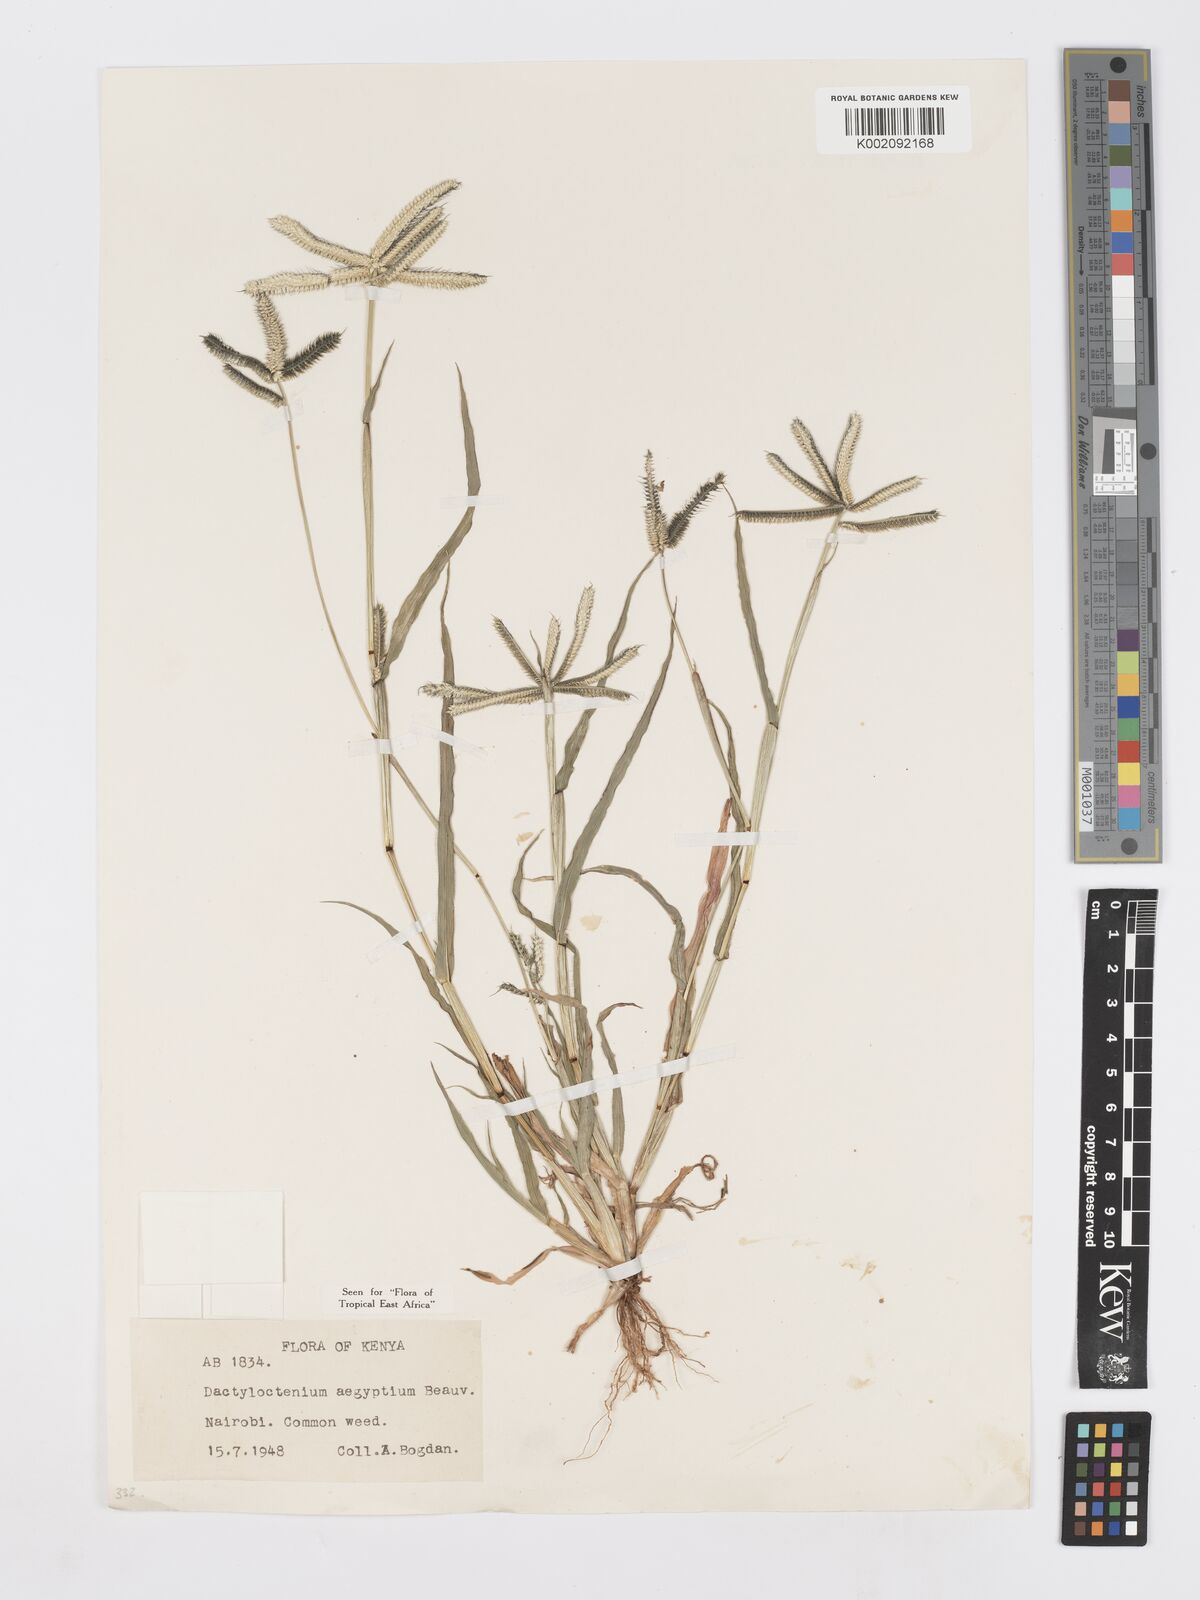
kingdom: Plantae
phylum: Tracheophyta
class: Liliopsida
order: Poales
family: Poaceae
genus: Dactyloctenium
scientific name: Dactyloctenium aegyptium
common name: Egyptian grass
